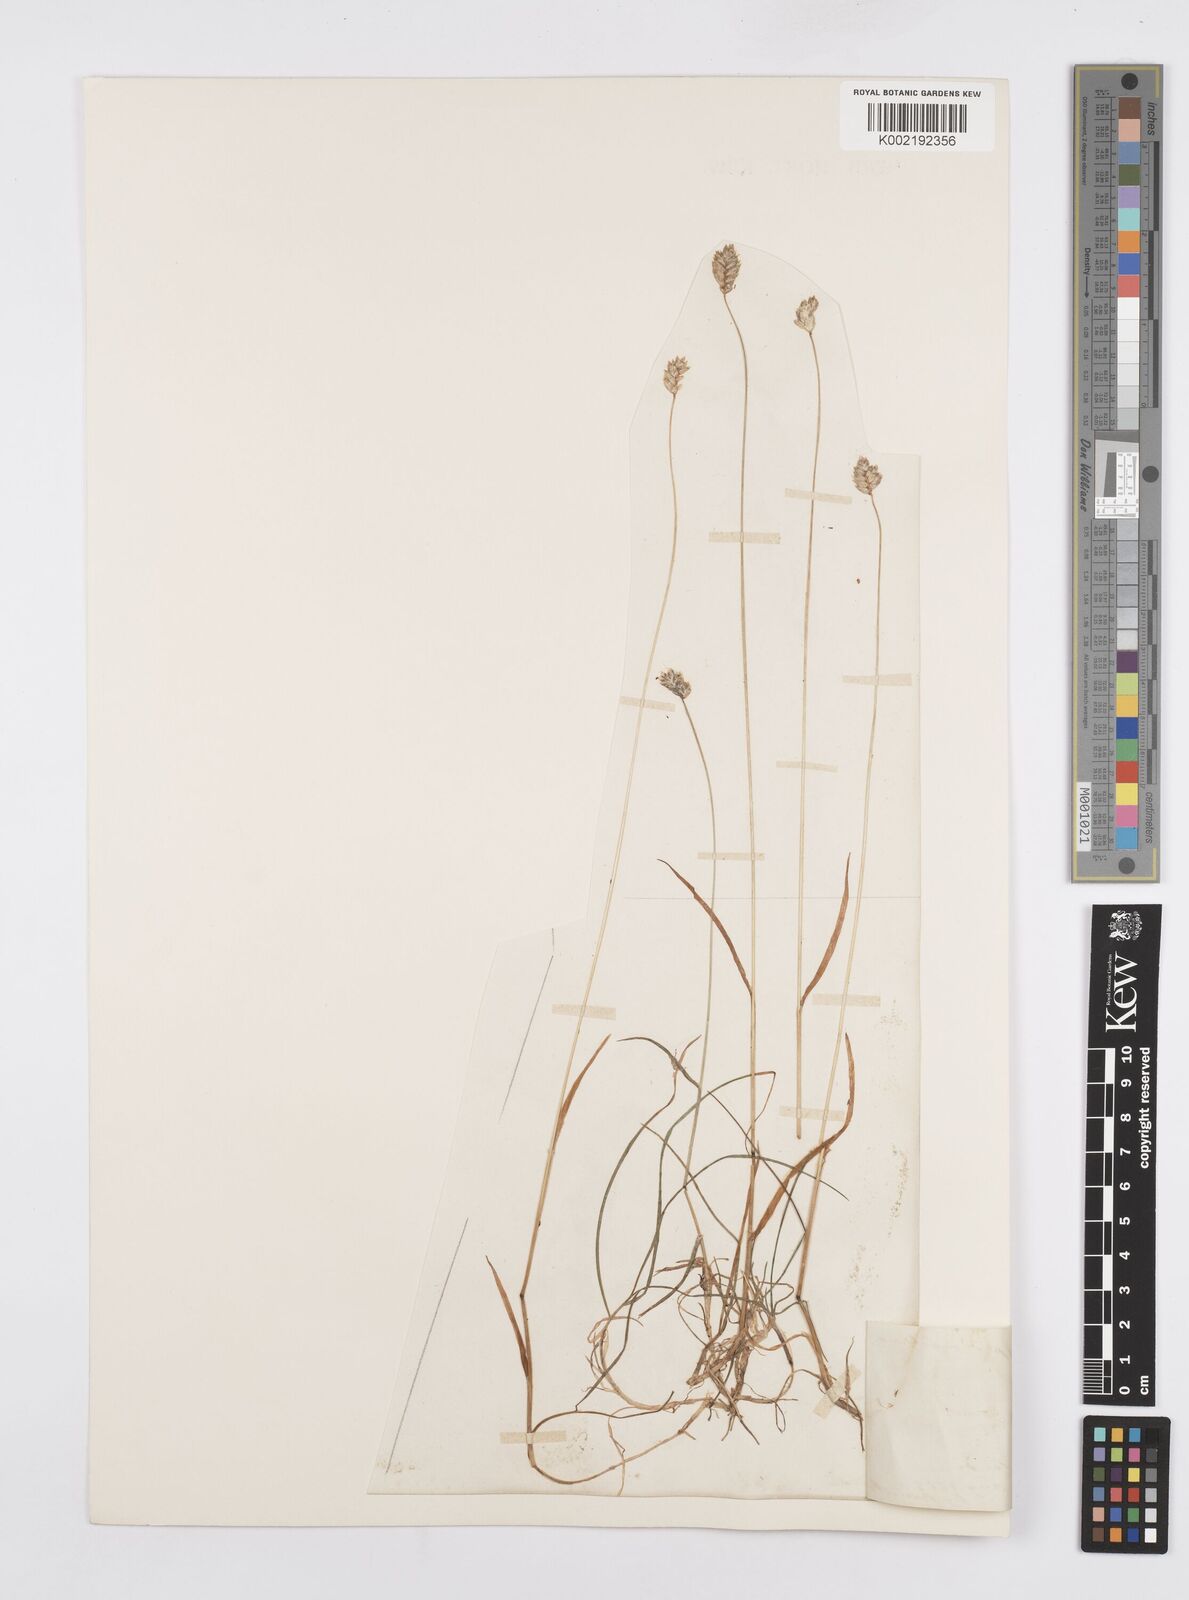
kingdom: Plantae
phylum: Tracheophyta
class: Liliopsida
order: Poales
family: Poaceae
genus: Oreochloa
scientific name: Oreochloa seslerioides
